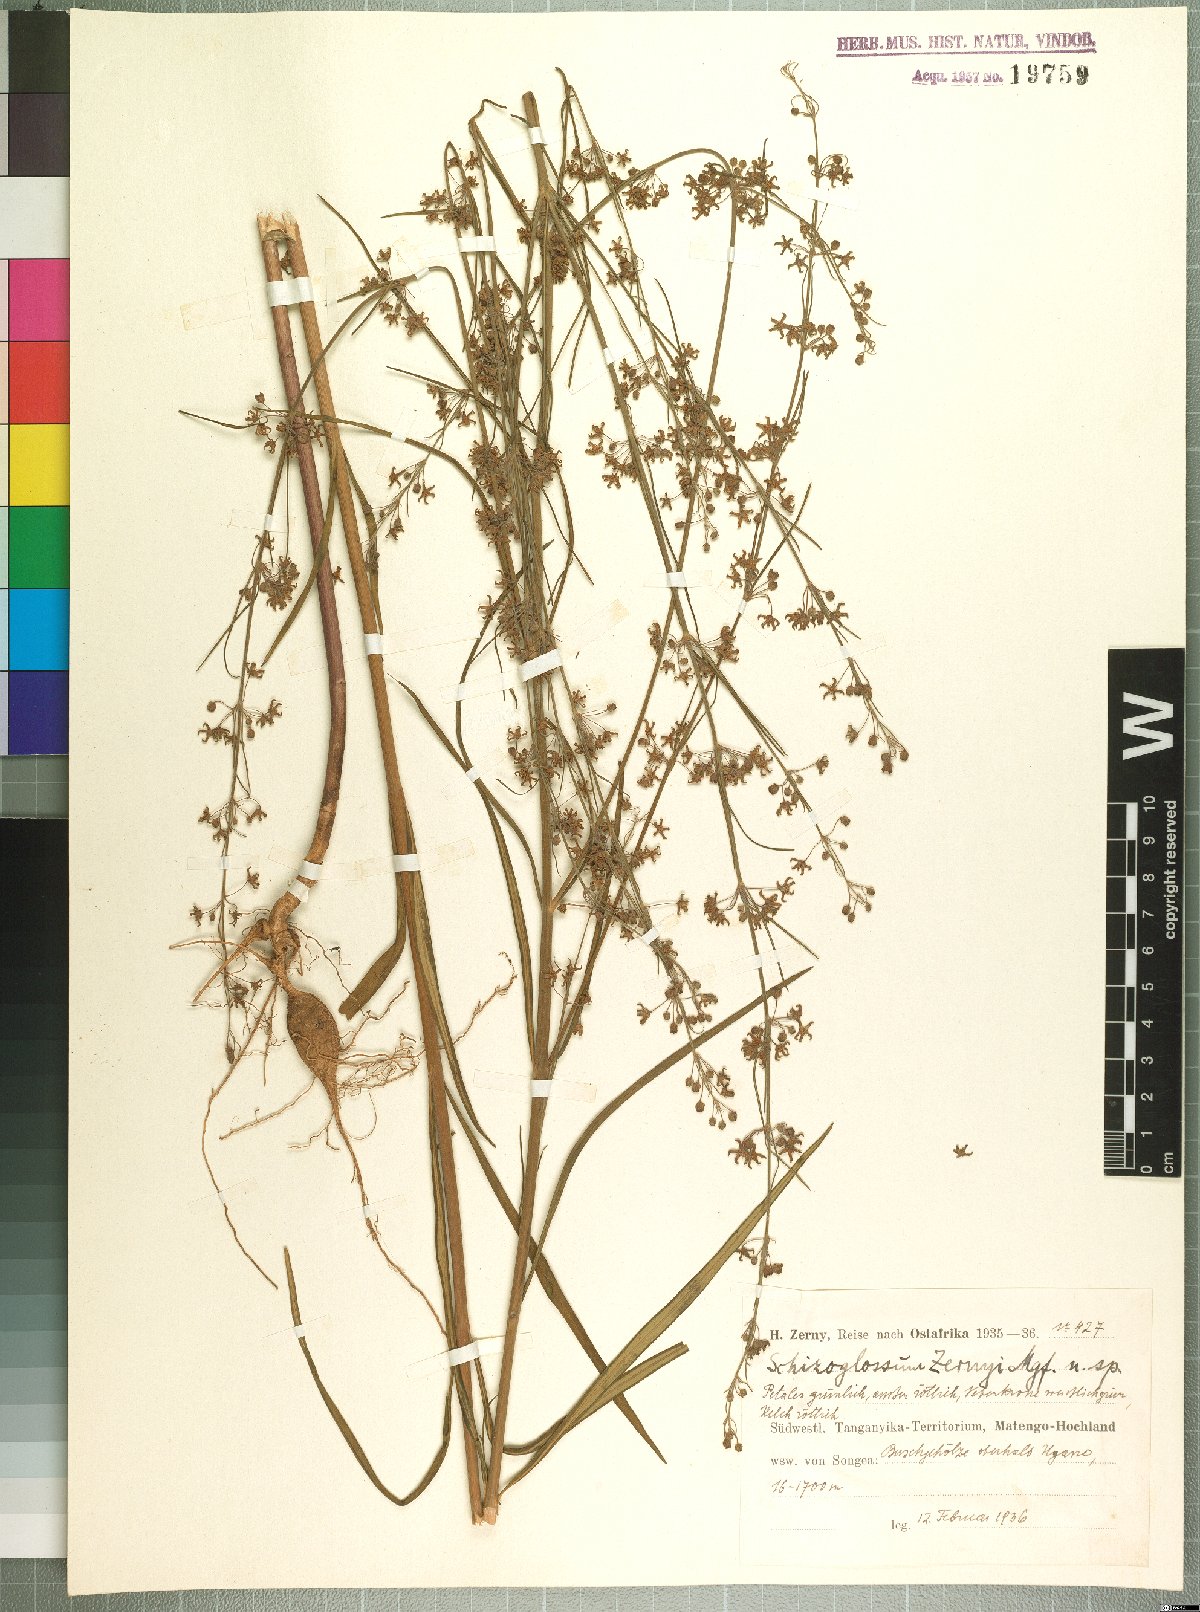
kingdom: Plantae
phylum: Tracheophyta
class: Magnoliopsida
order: Gentianales
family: Apocynaceae
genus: Aspidoglossum
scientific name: Aspidoglossum angustissimum
